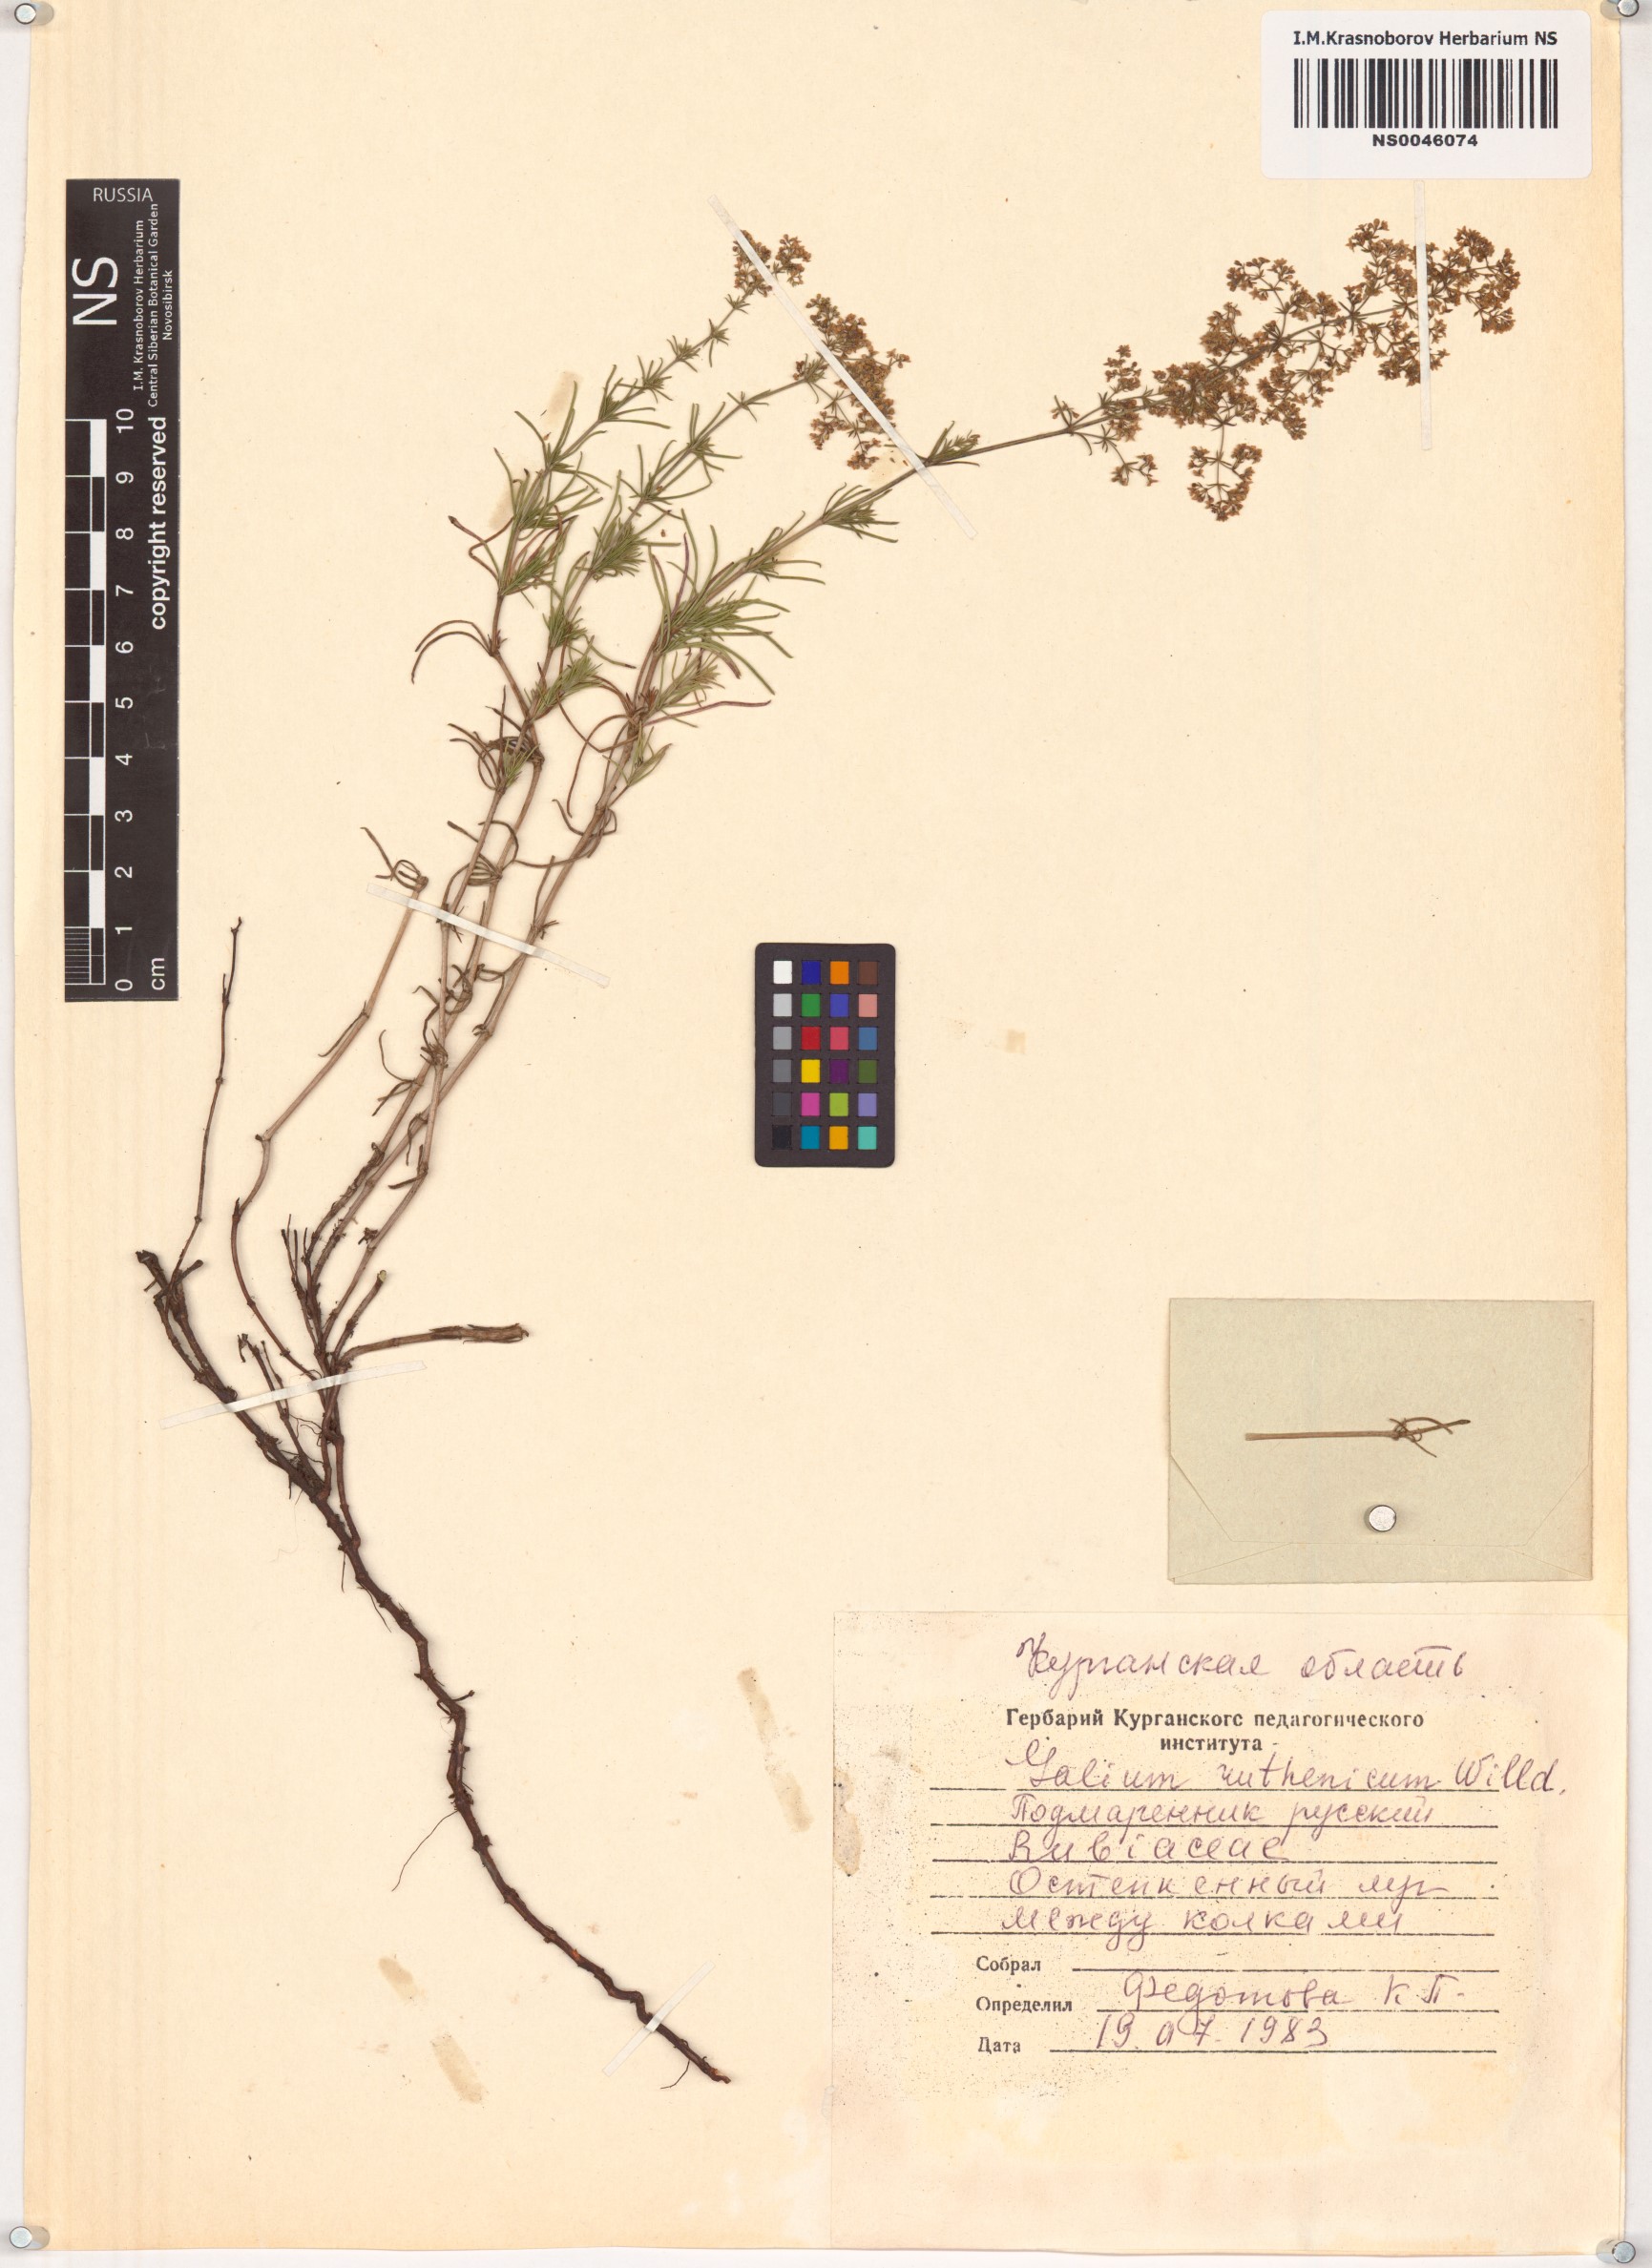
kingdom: Plantae
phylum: Tracheophyta
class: Magnoliopsida
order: Gentianales
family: Rubiaceae
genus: Galium
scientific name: Galium verum
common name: Lady's bedstraw
